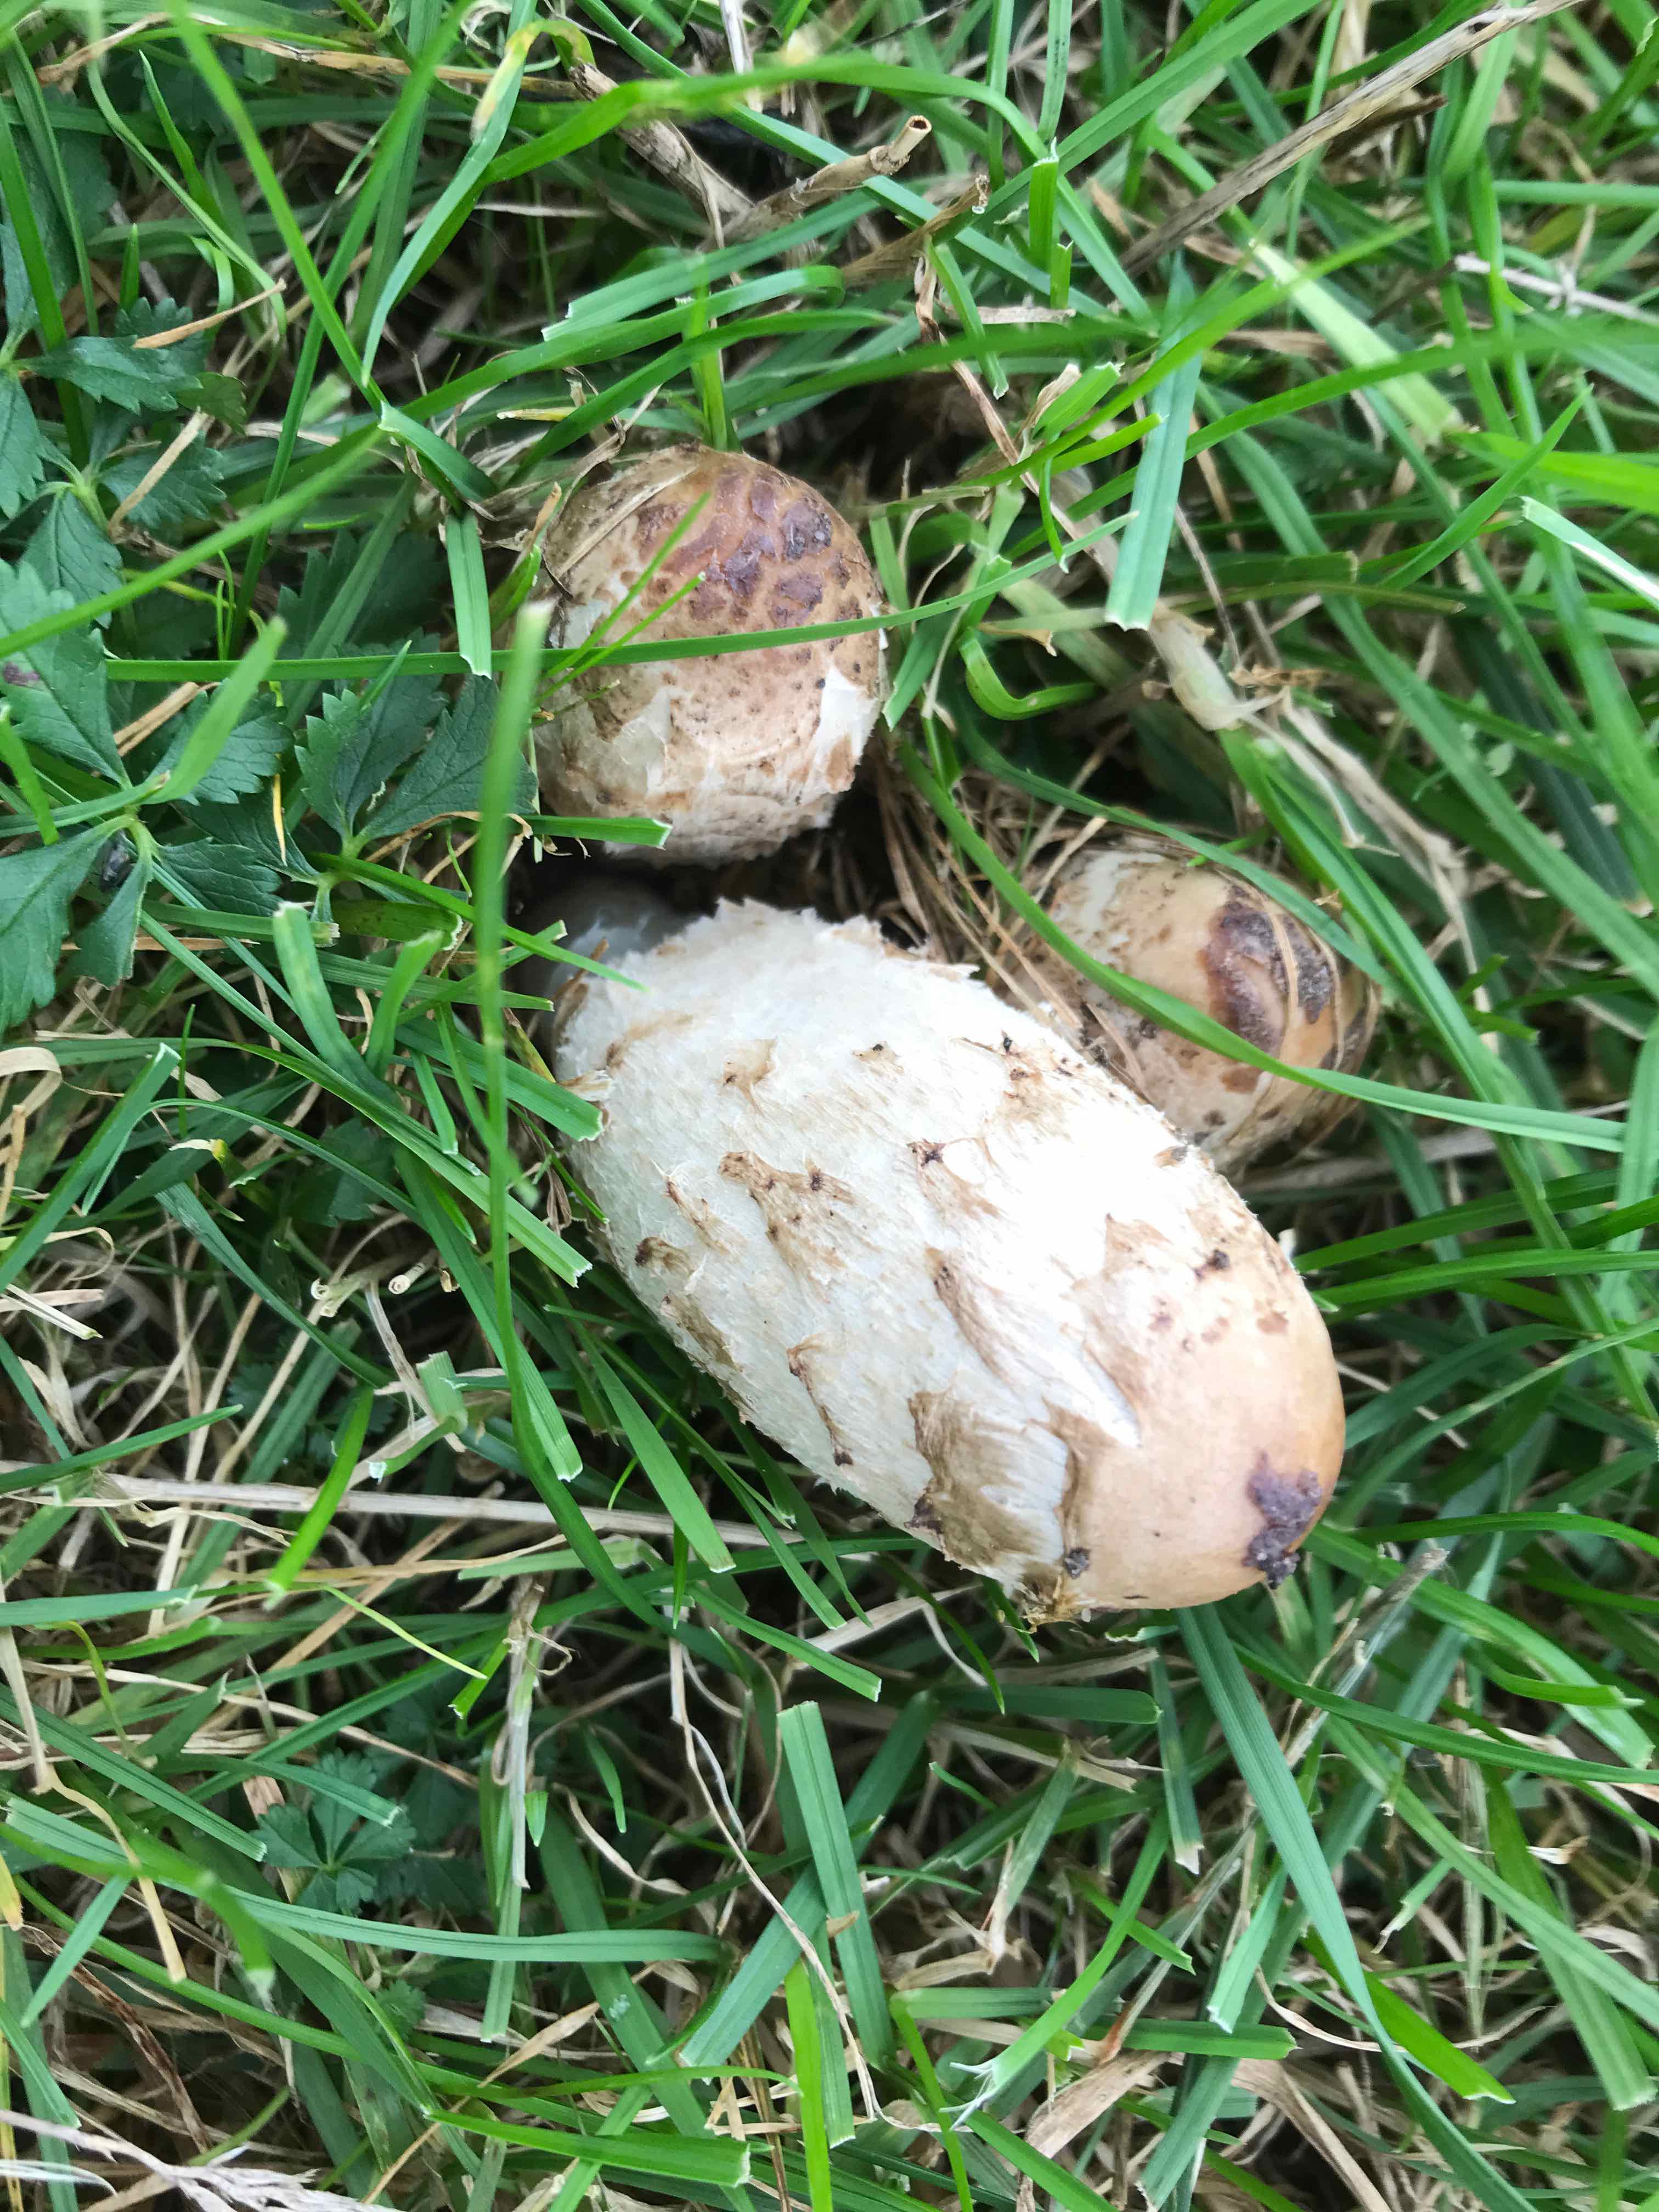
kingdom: Fungi
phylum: Basidiomycota
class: Agaricomycetes
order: Agaricales
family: Agaricaceae
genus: Coprinus
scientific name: Coprinus comatus
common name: stor parykhat
